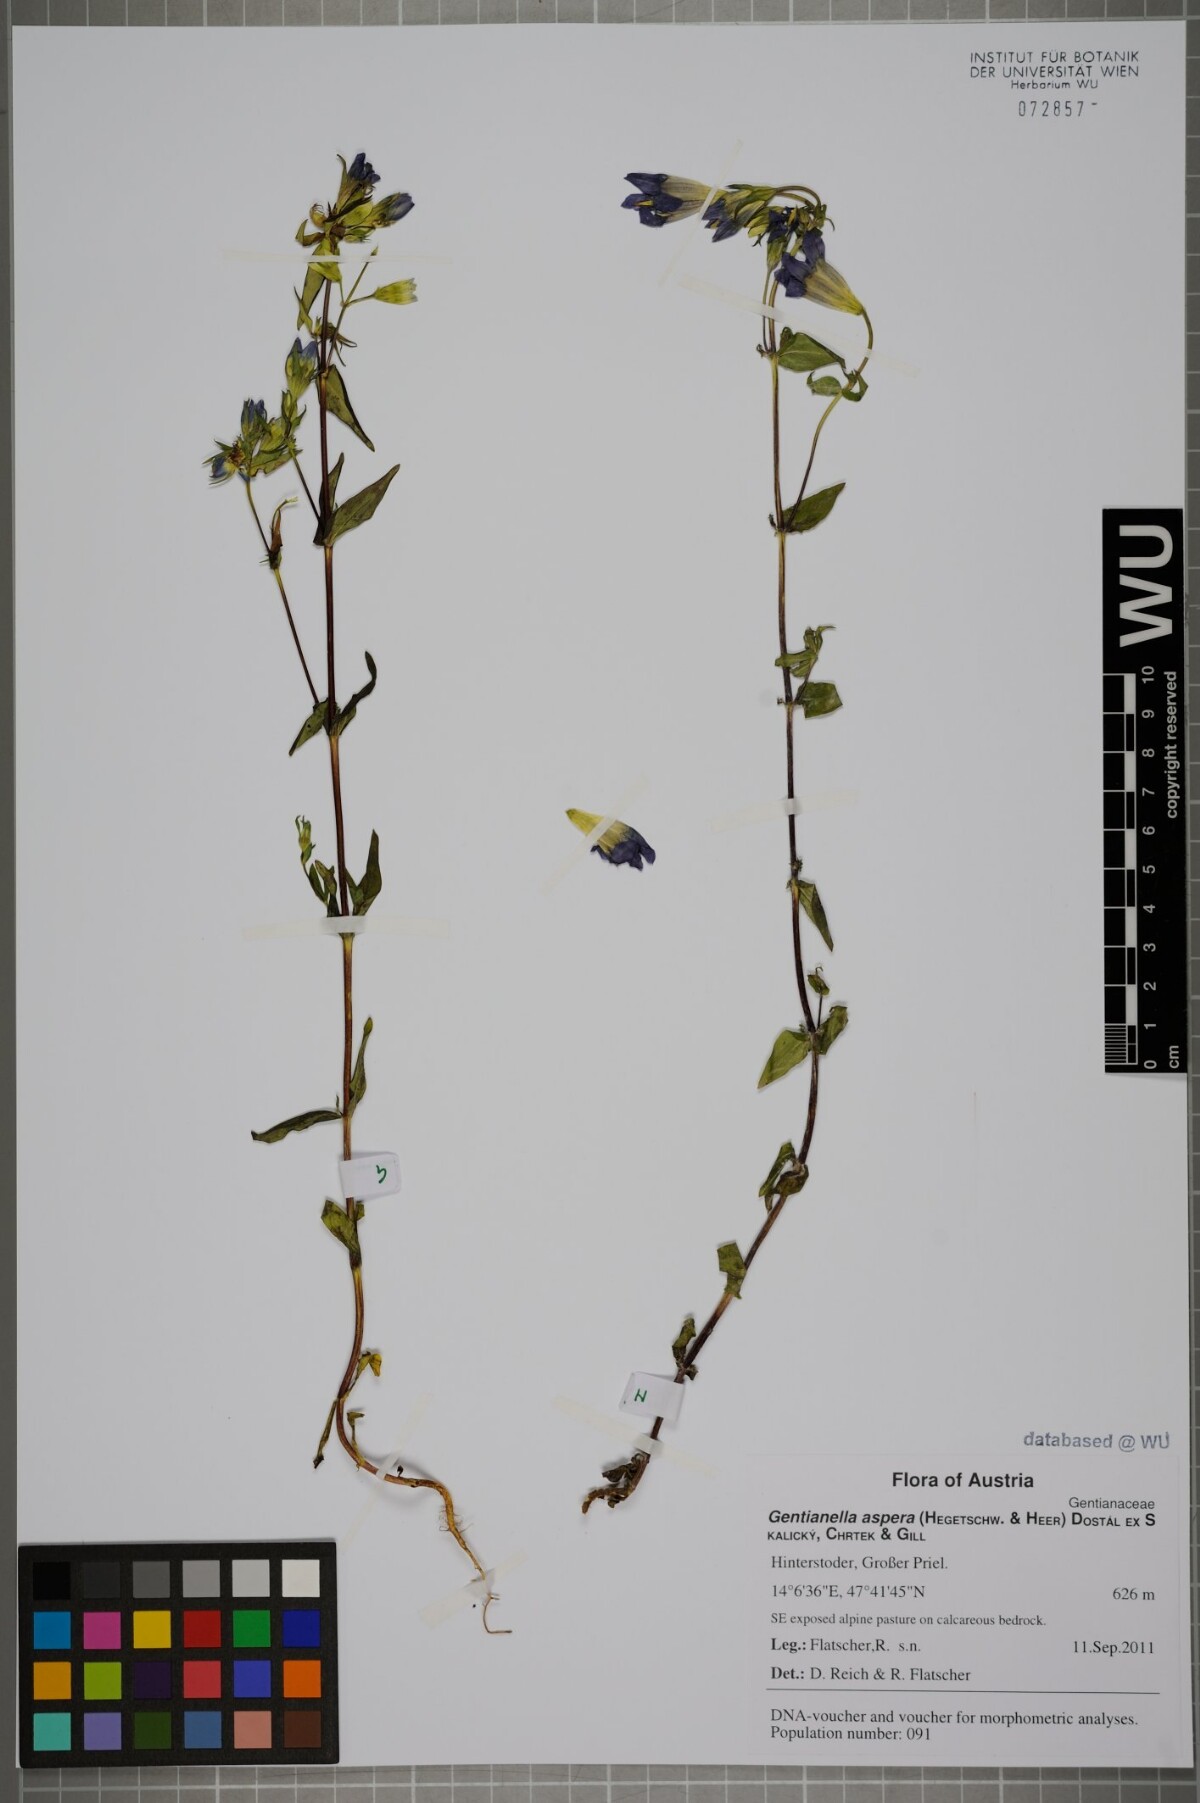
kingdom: Plantae
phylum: Tracheophyta
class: Magnoliopsida
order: Gentianales
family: Gentianaceae
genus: Gentianella
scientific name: Gentianella obtusifolia
